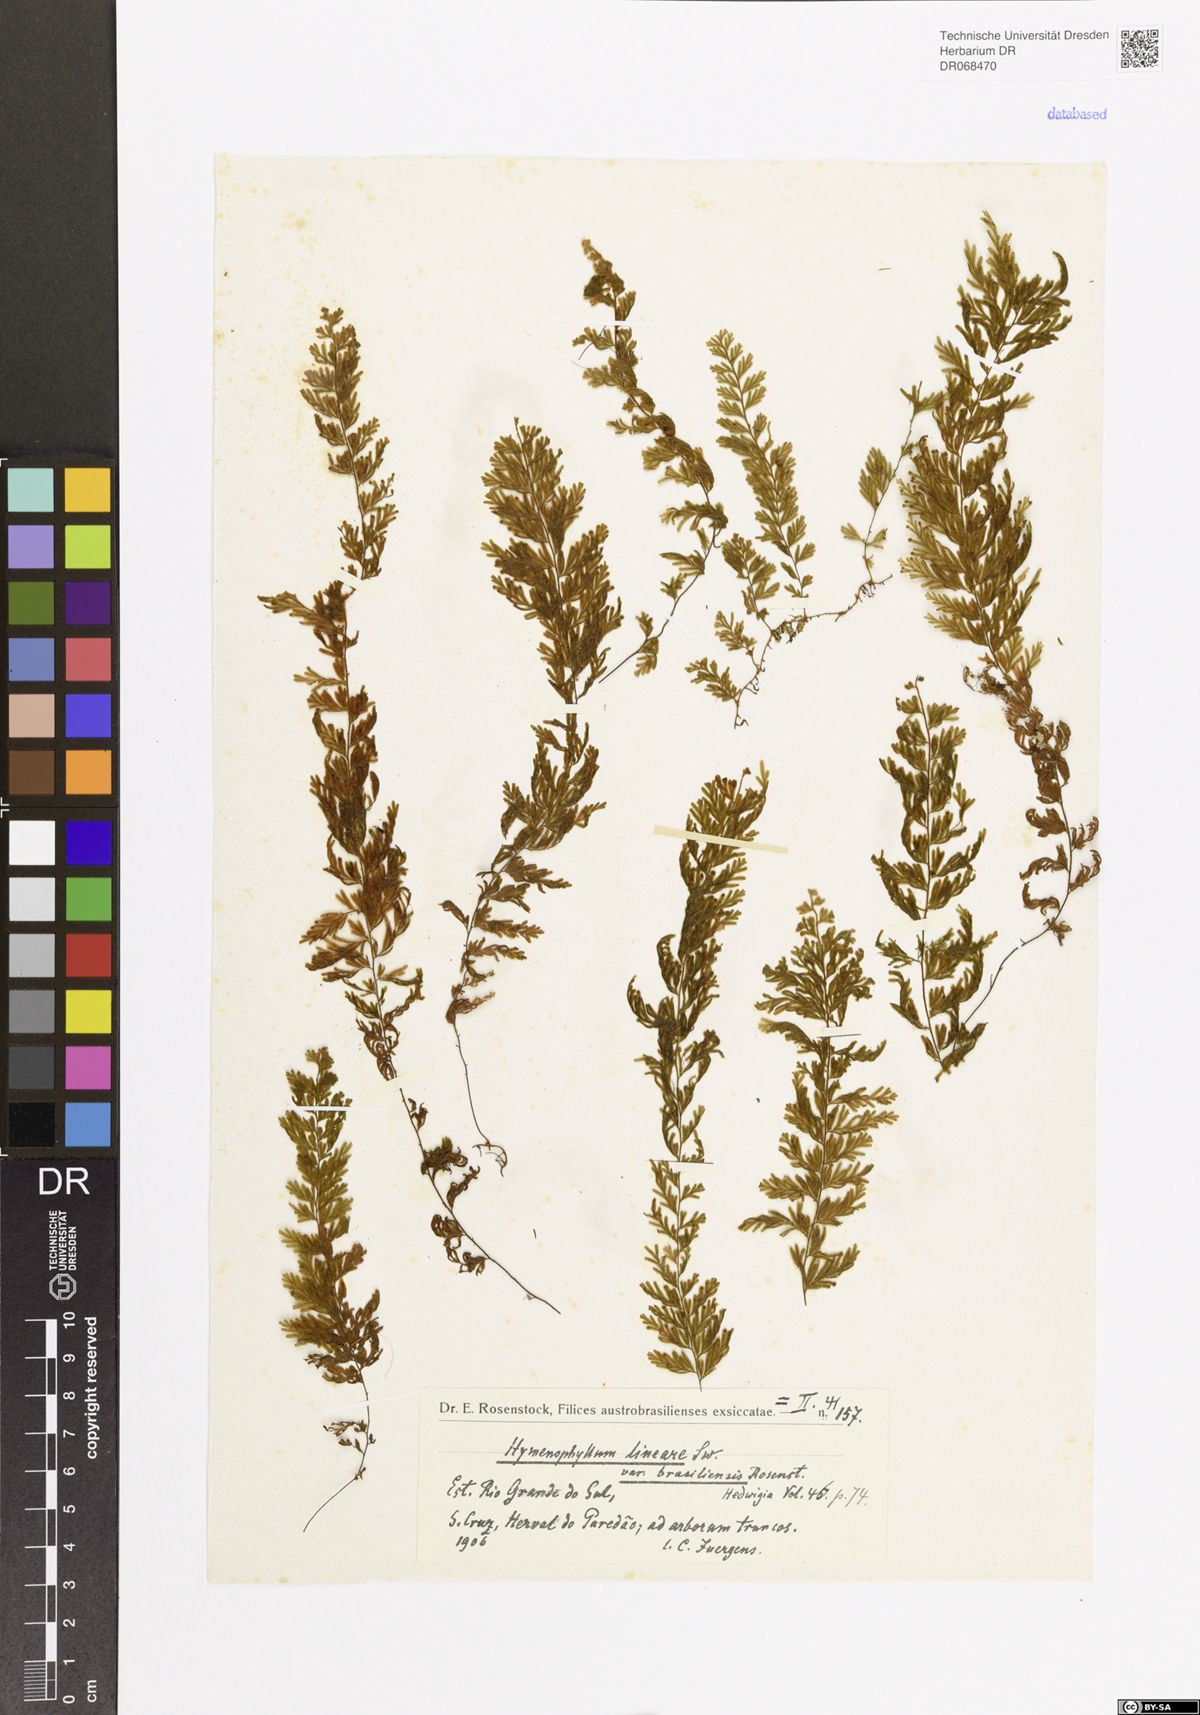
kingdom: Plantae
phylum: Tracheophyta
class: Polypodiopsida
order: Hymenophyllales
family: Hymenophyllaceae
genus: Hymenophyllum
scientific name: Hymenophyllum rufum
